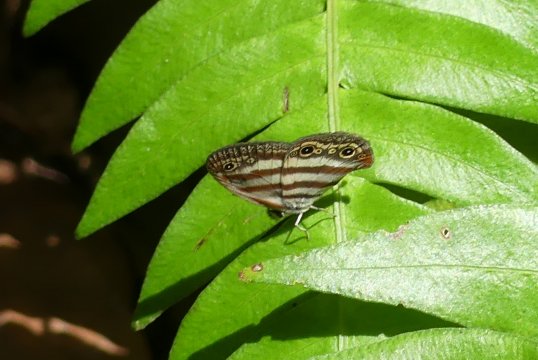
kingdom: Animalia
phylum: Arthropoda
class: Insecta
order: Lepidoptera
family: Nymphalidae
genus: Euptychia
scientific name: Euptychia mollina
